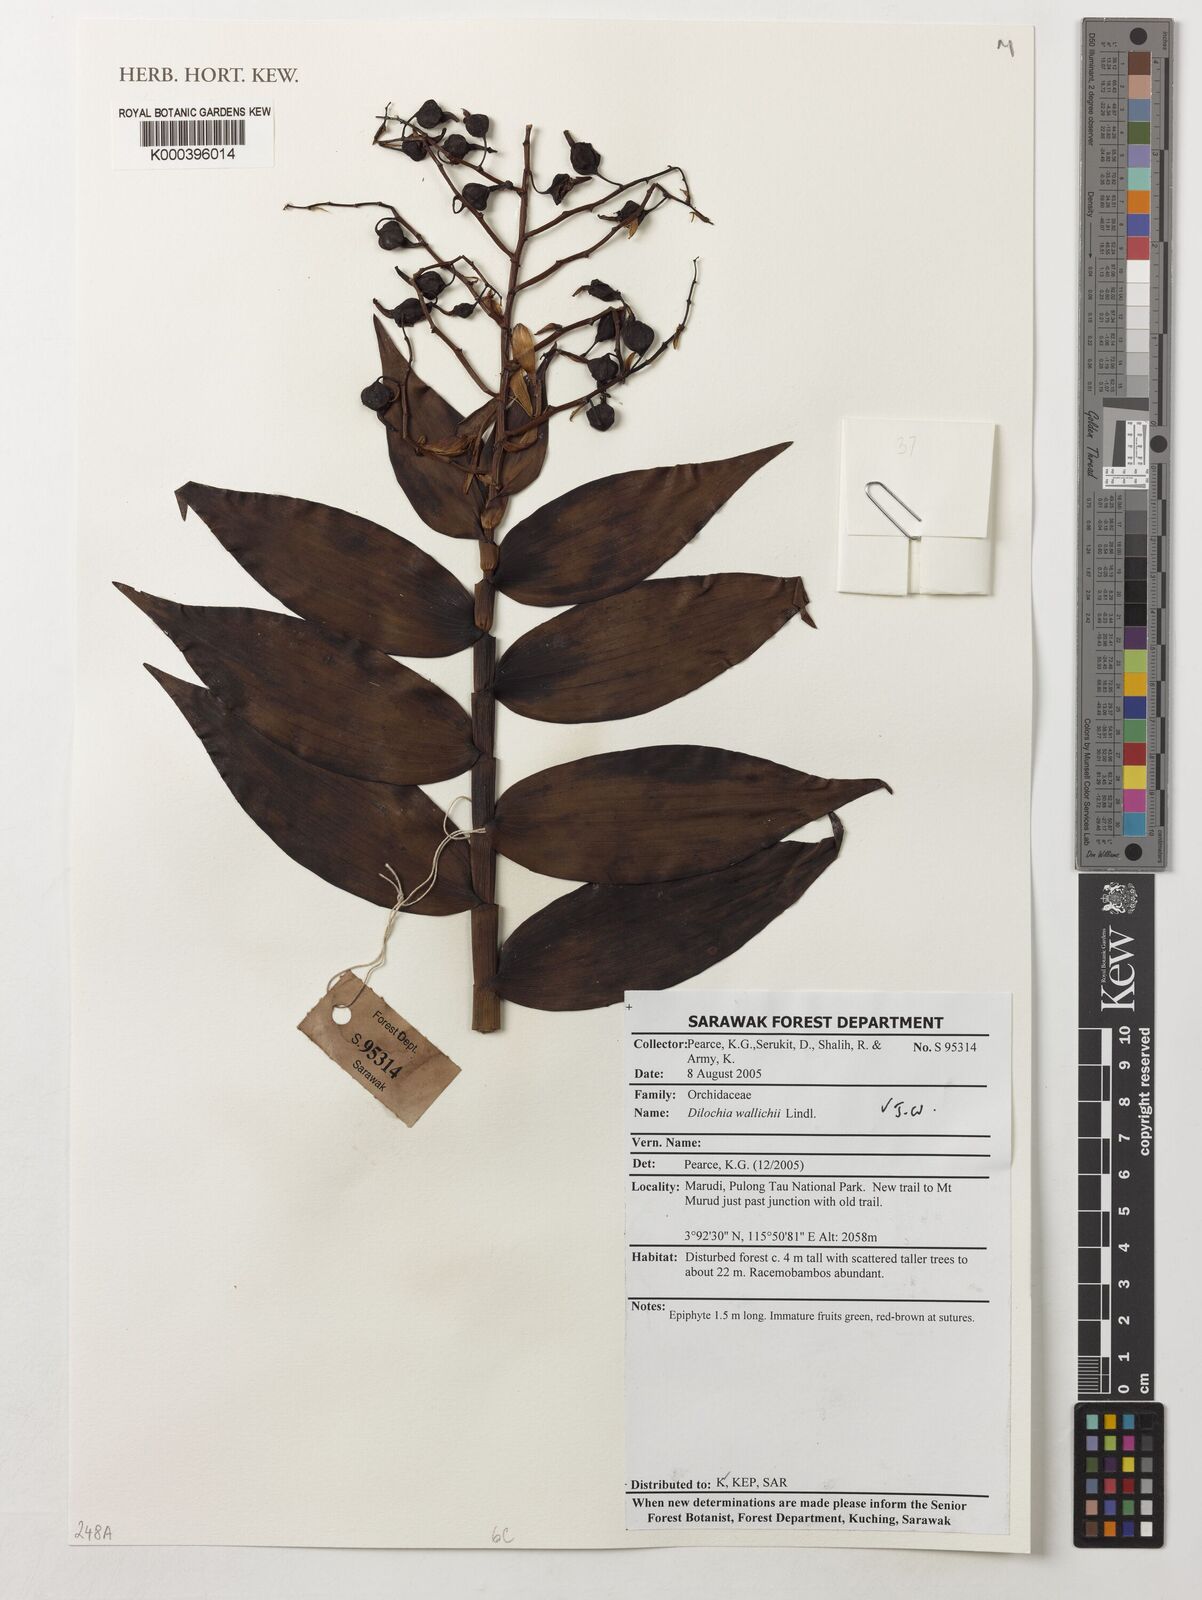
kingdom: Plantae
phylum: Tracheophyta
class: Liliopsida
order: Asparagales
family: Orchidaceae
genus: Dilochia
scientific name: Dilochia wallichii
